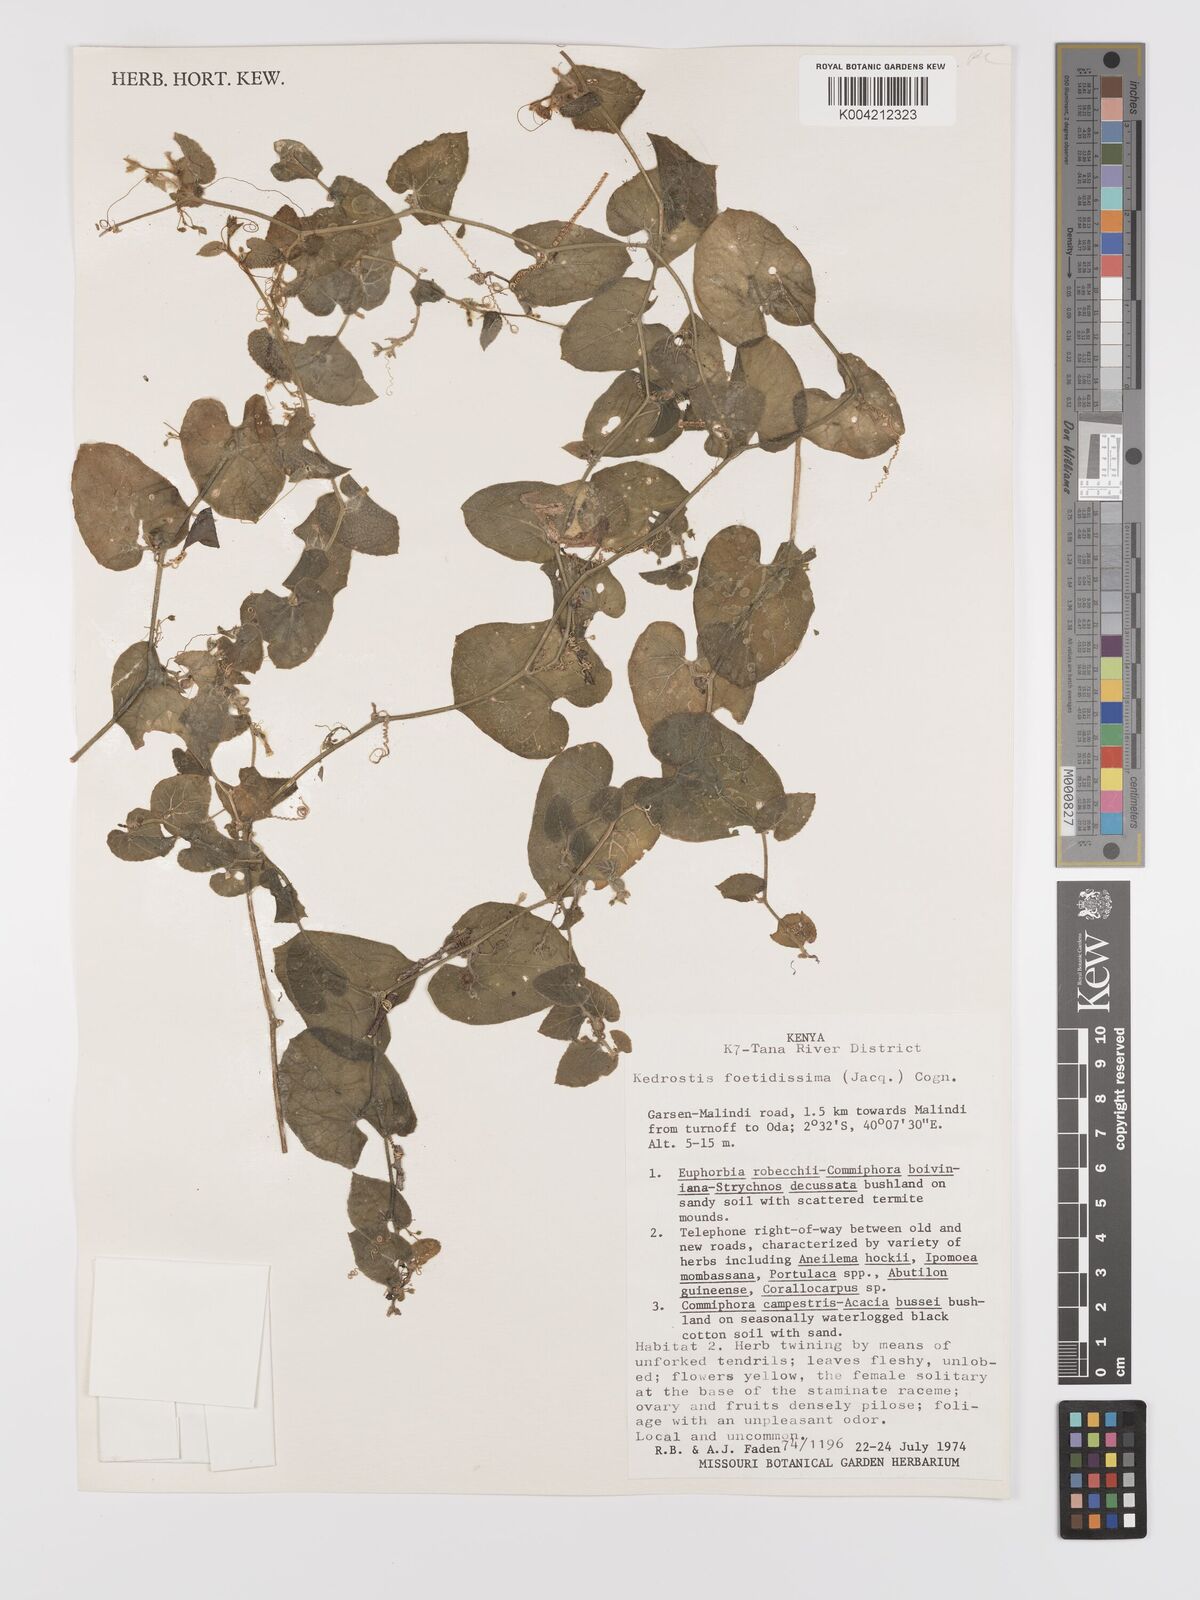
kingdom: Plantae
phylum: Tracheophyta
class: Magnoliopsida
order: Cucurbitales
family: Cucurbitaceae
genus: Kedrostis
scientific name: Kedrostis foetidissima
